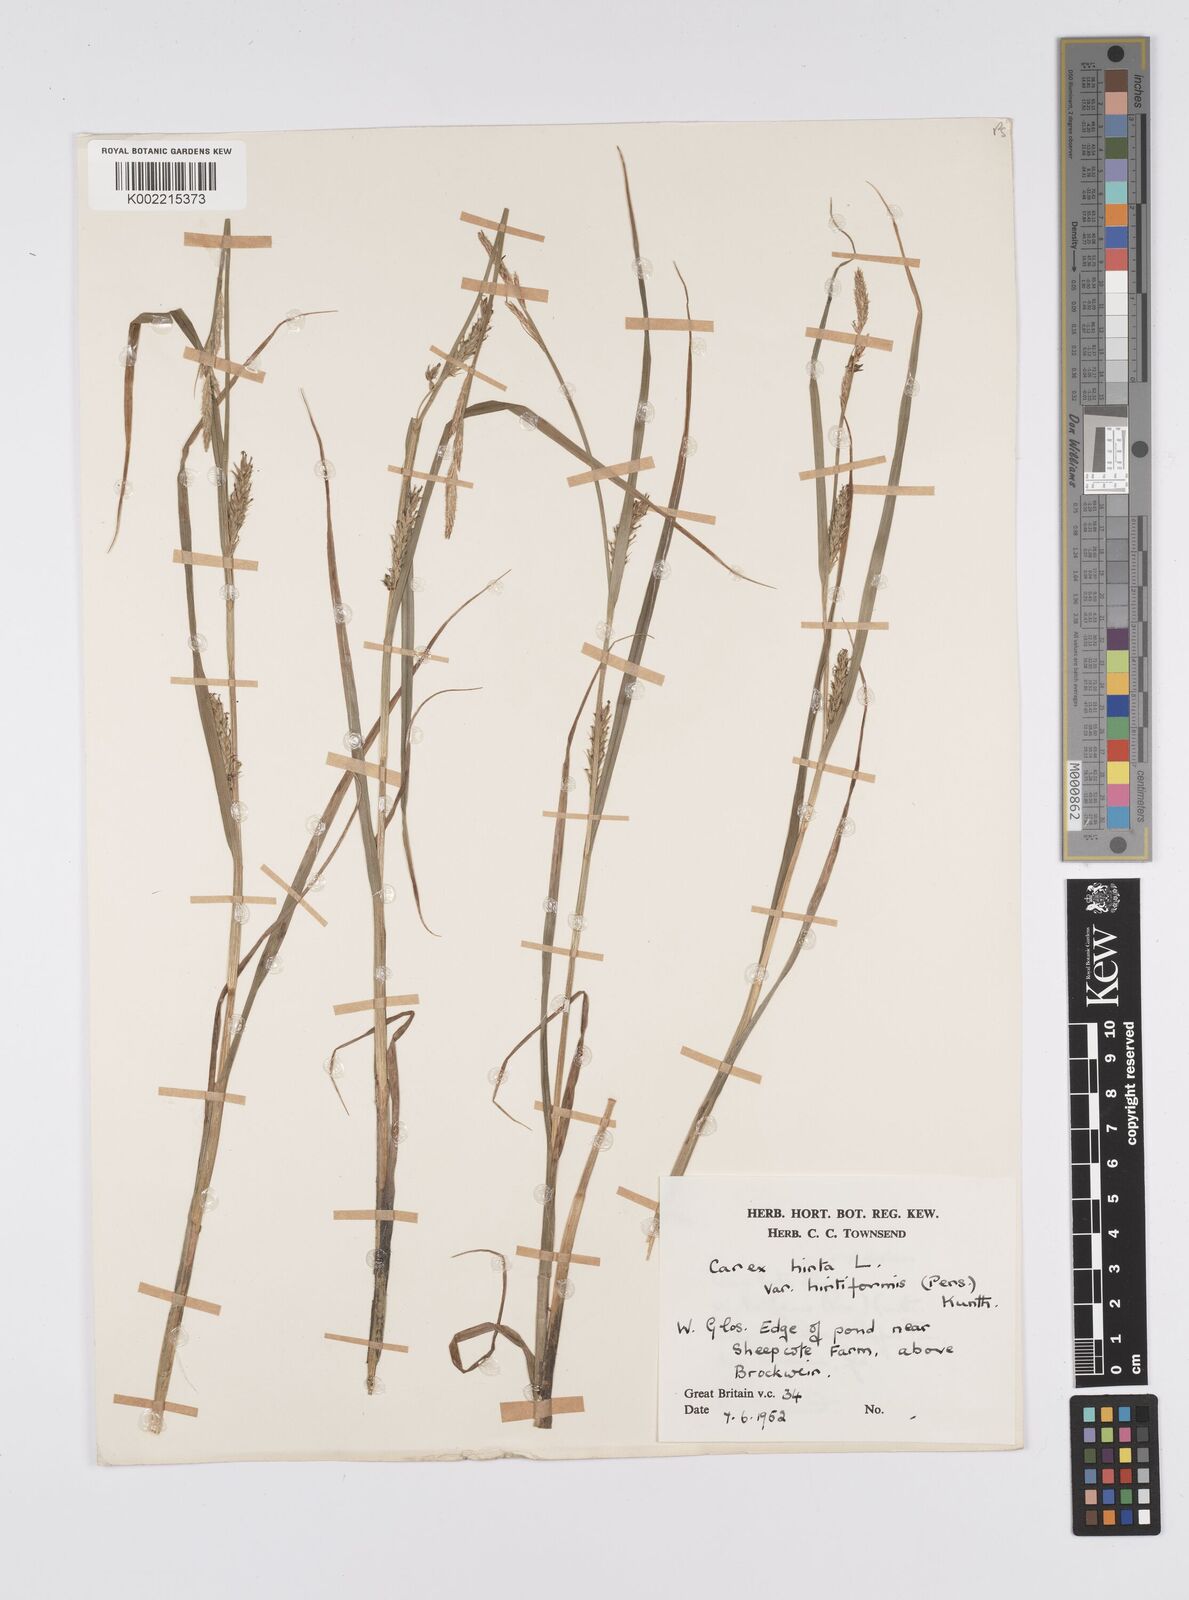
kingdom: Plantae
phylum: Tracheophyta
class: Liliopsida
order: Poales
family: Cyperaceae
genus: Carex
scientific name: Carex hirta
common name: Hairy sedge
